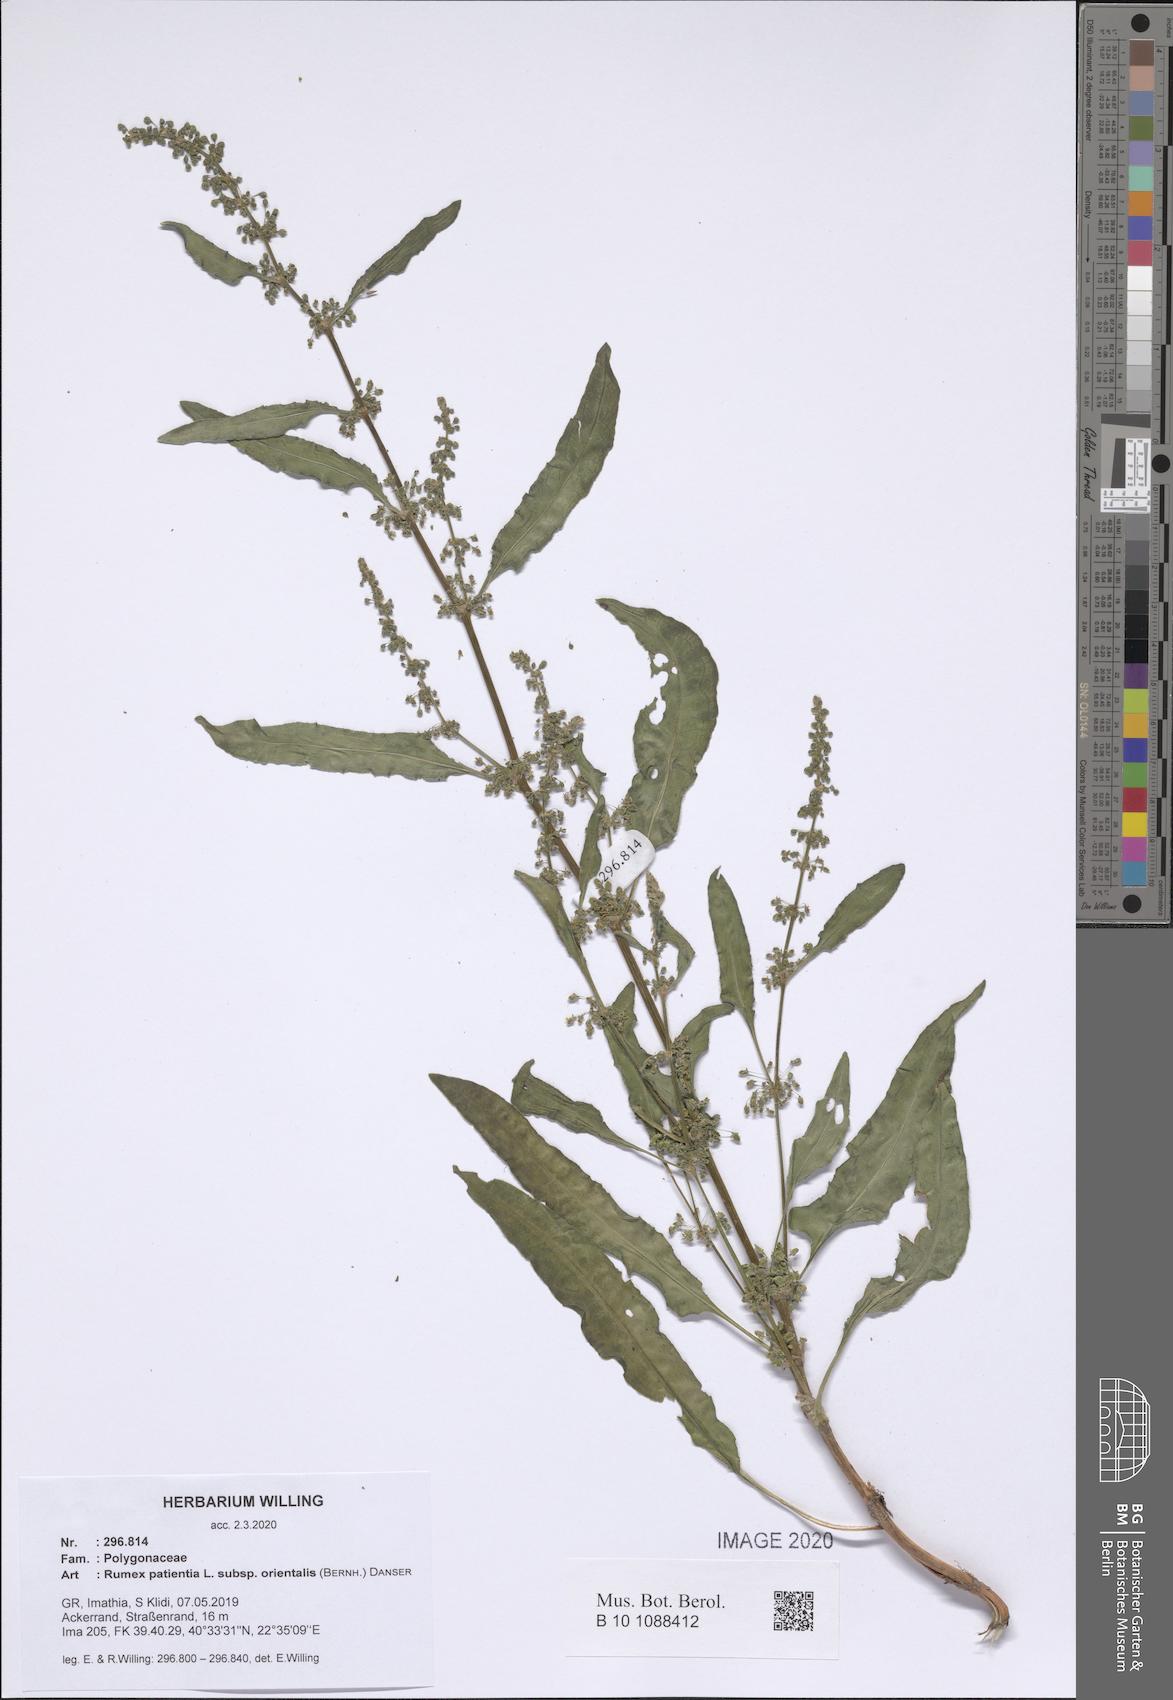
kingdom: Plantae
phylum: Tracheophyta
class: Magnoliopsida
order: Caryophyllales
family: Polygonaceae
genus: Rumex
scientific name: Rumex patientia
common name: Patience dock
